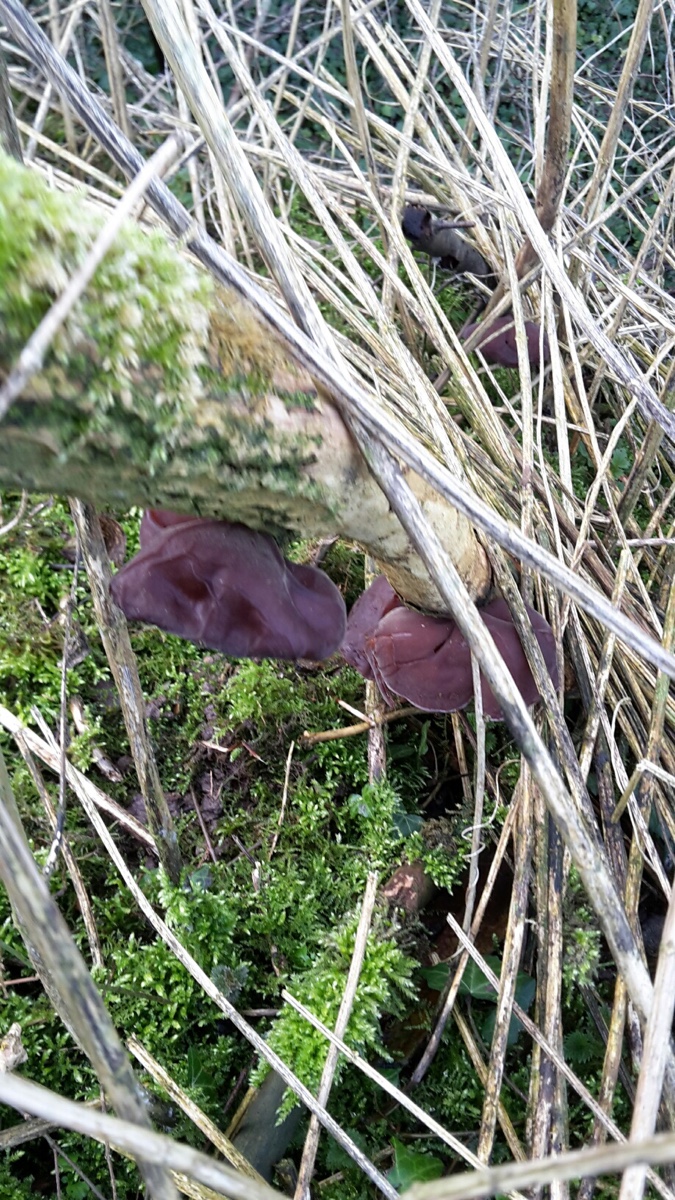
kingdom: Fungi
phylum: Basidiomycota
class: Agaricomycetes
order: Auriculariales
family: Auriculariaceae
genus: Auricularia
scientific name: Auricularia auricula-judae
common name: almindelig judasøre
